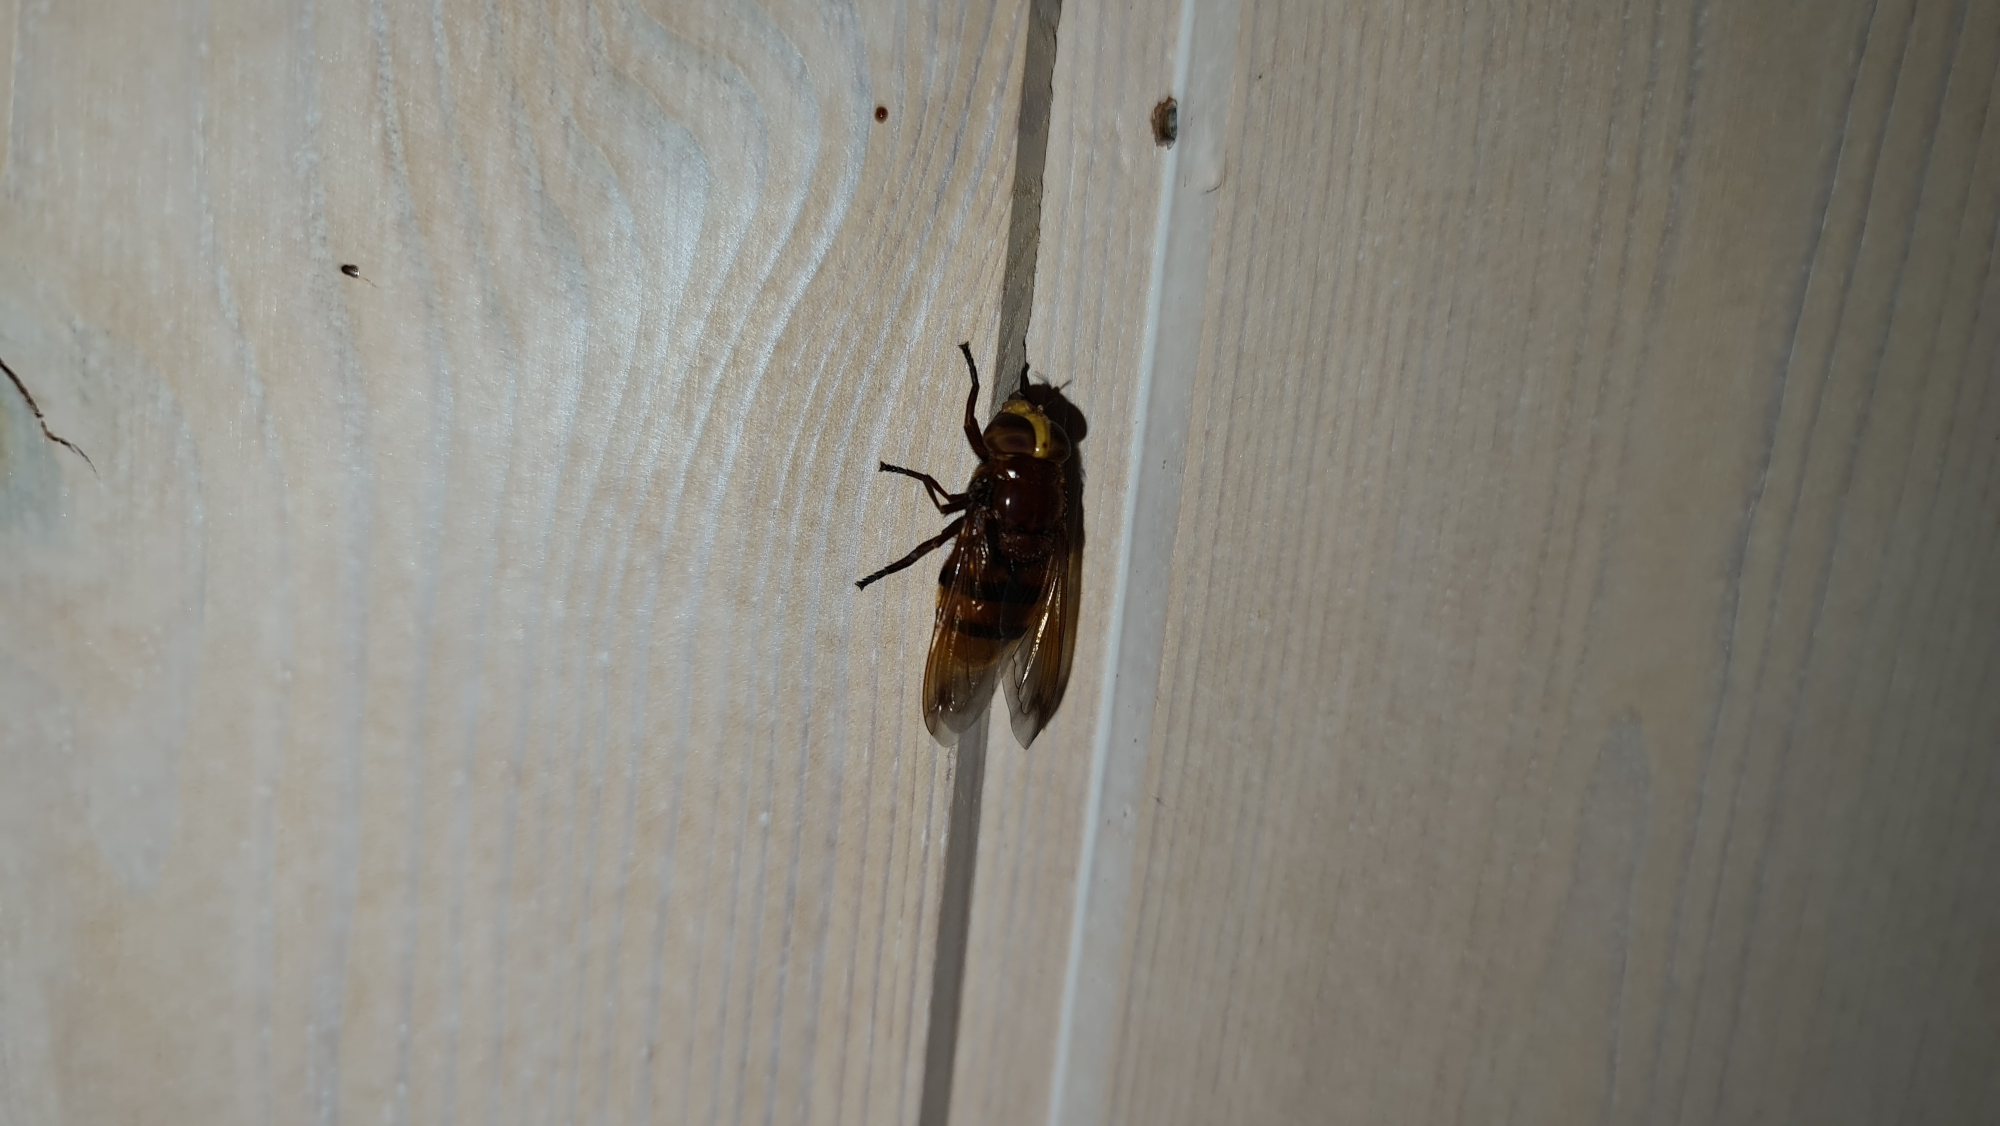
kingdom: Animalia
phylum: Arthropoda
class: Insecta
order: Diptera
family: Syrphidae
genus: Volucella
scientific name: Volucella zonaria
